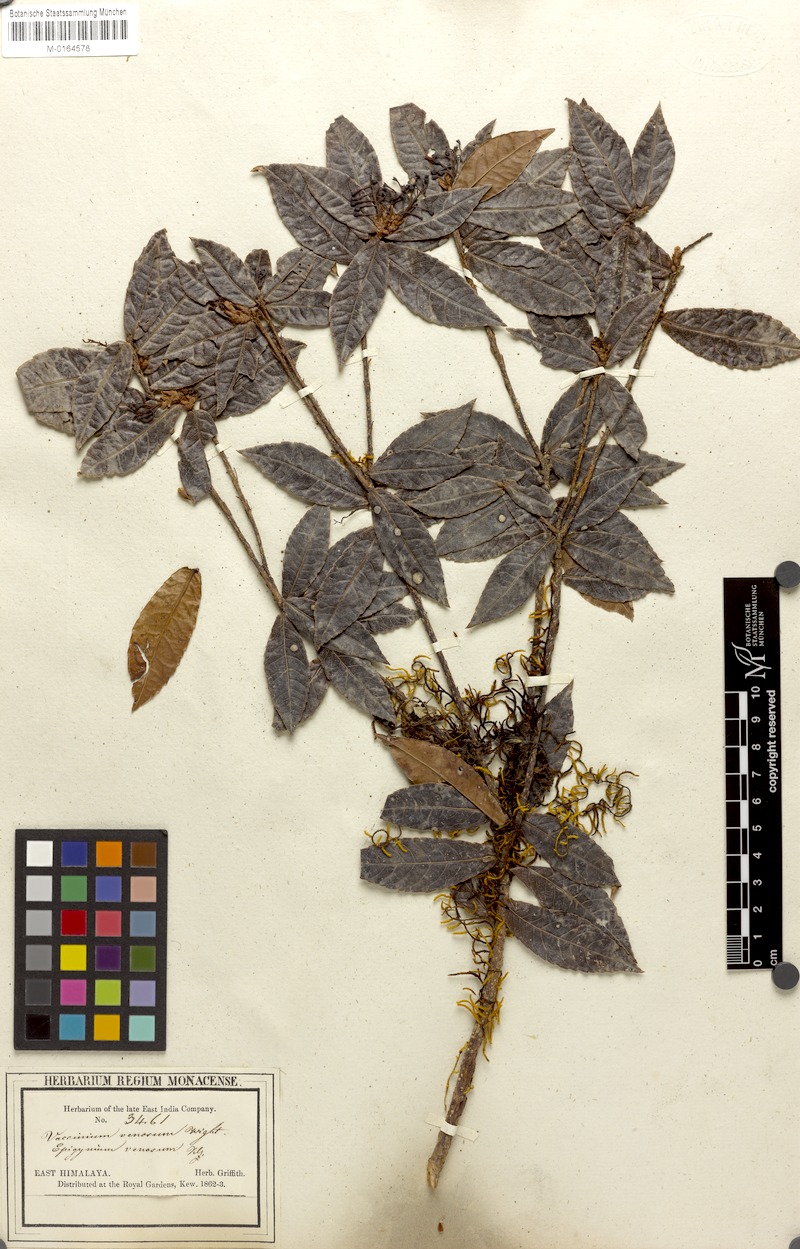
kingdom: Plantae
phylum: Tracheophyta
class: Magnoliopsida
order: Ericales
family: Ericaceae
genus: Vaccinium
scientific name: Vaccinium venosum
